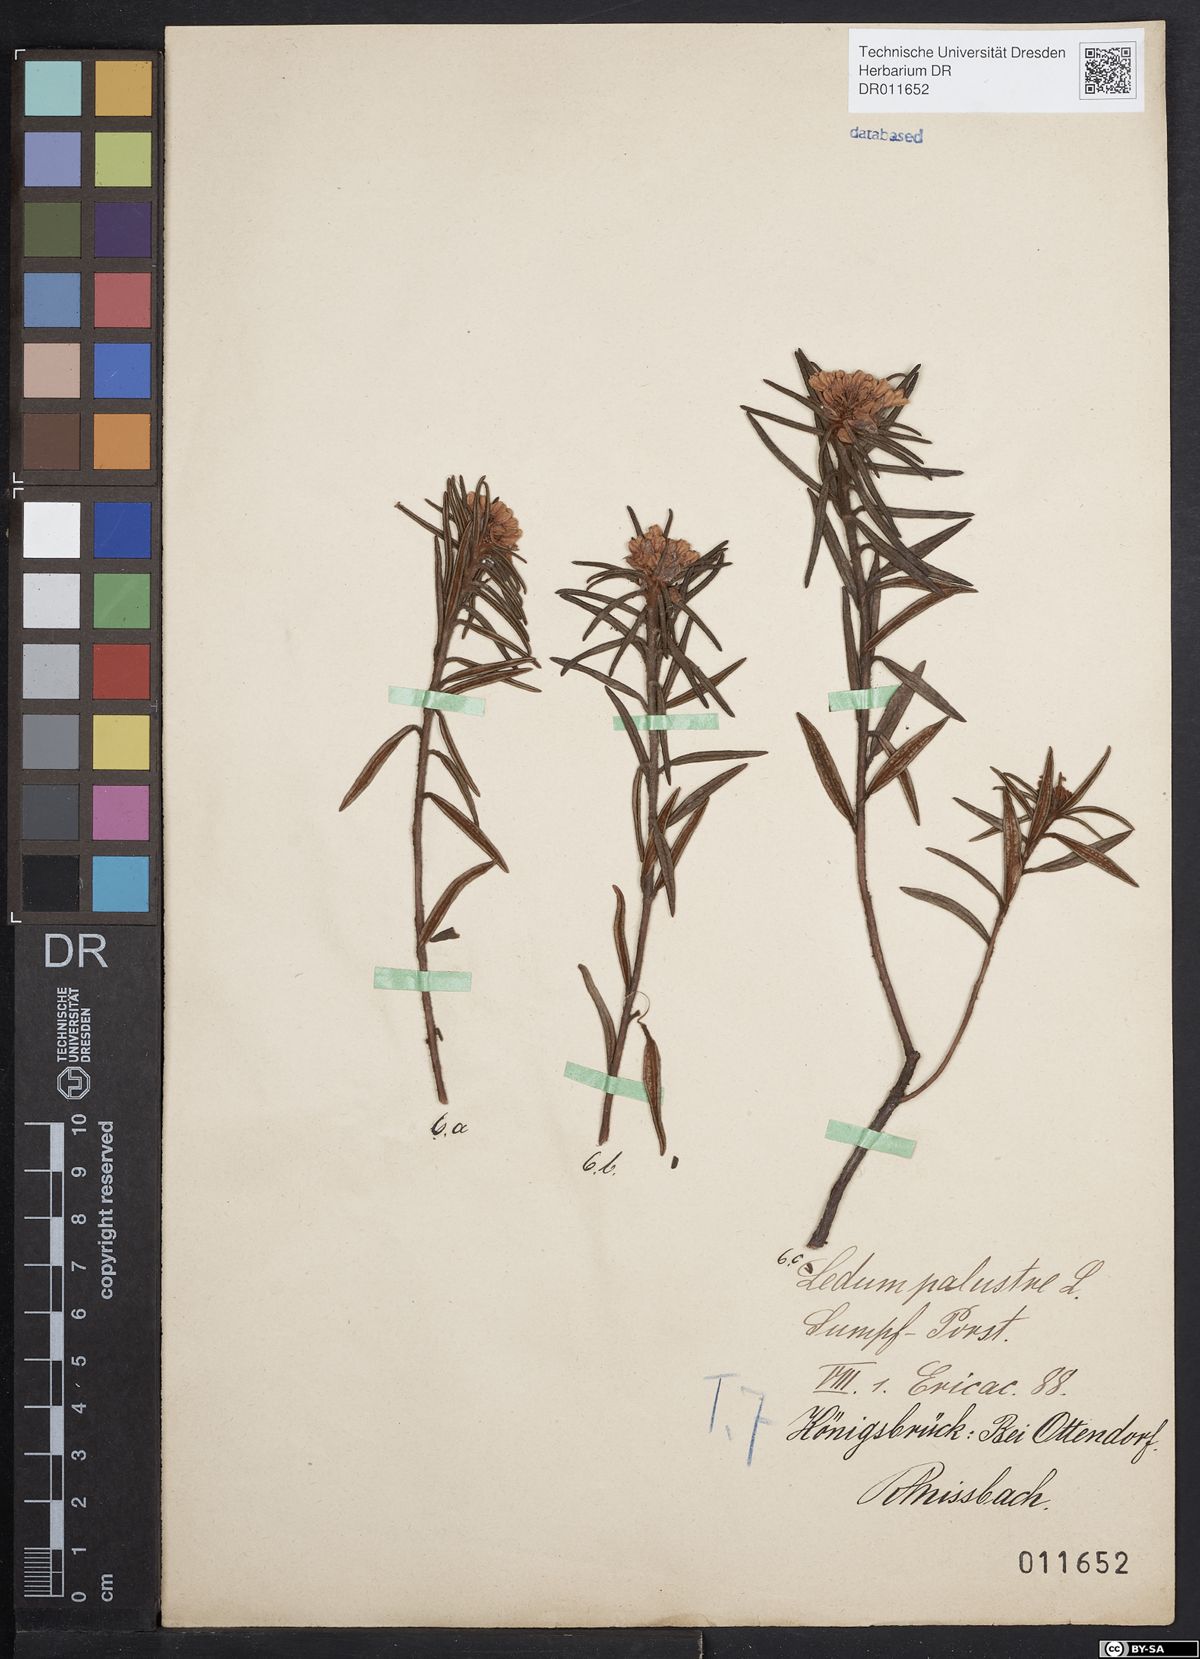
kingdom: Plantae
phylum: Tracheophyta
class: Magnoliopsida
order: Ericales
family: Ericaceae
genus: Rhododendron
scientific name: Rhododendron tomentosum
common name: Marsh labrador tea
